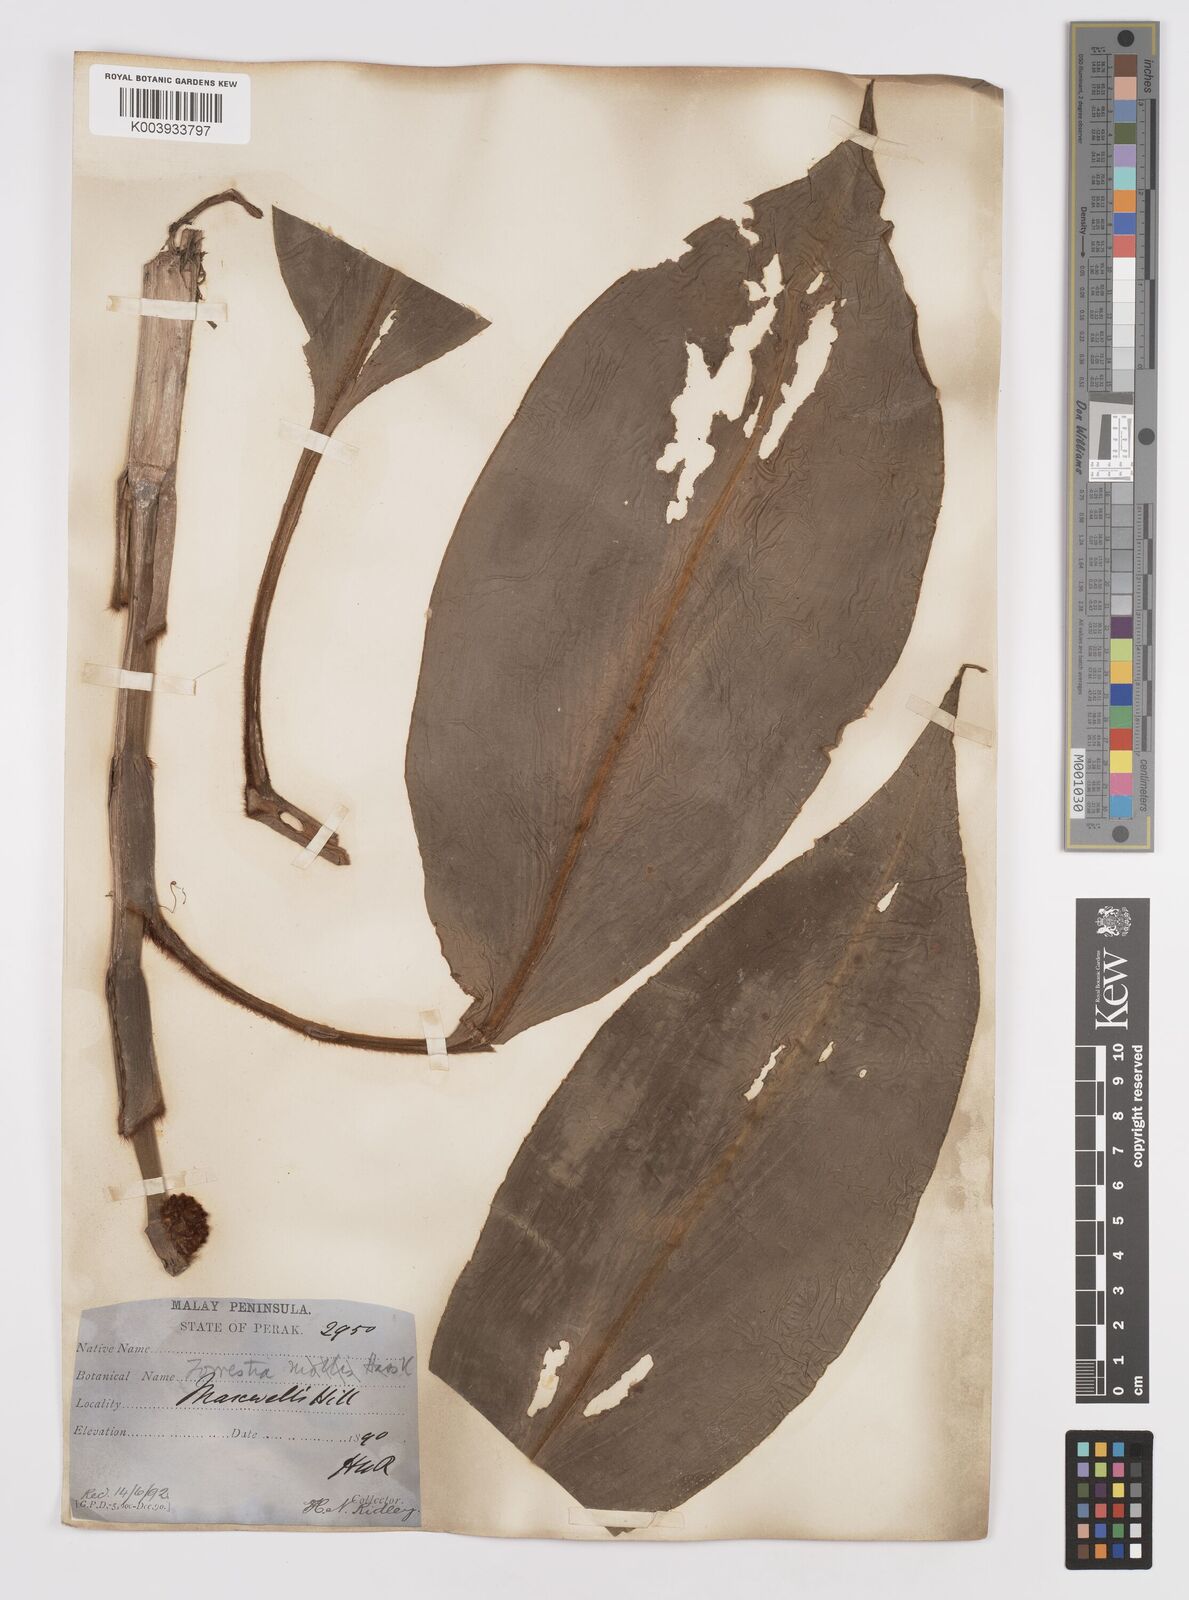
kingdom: Plantae
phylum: Tracheophyta
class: Liliopsida
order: Commelinales
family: Commelinaceae
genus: Amischotolype
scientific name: Amischotolype mollissima
